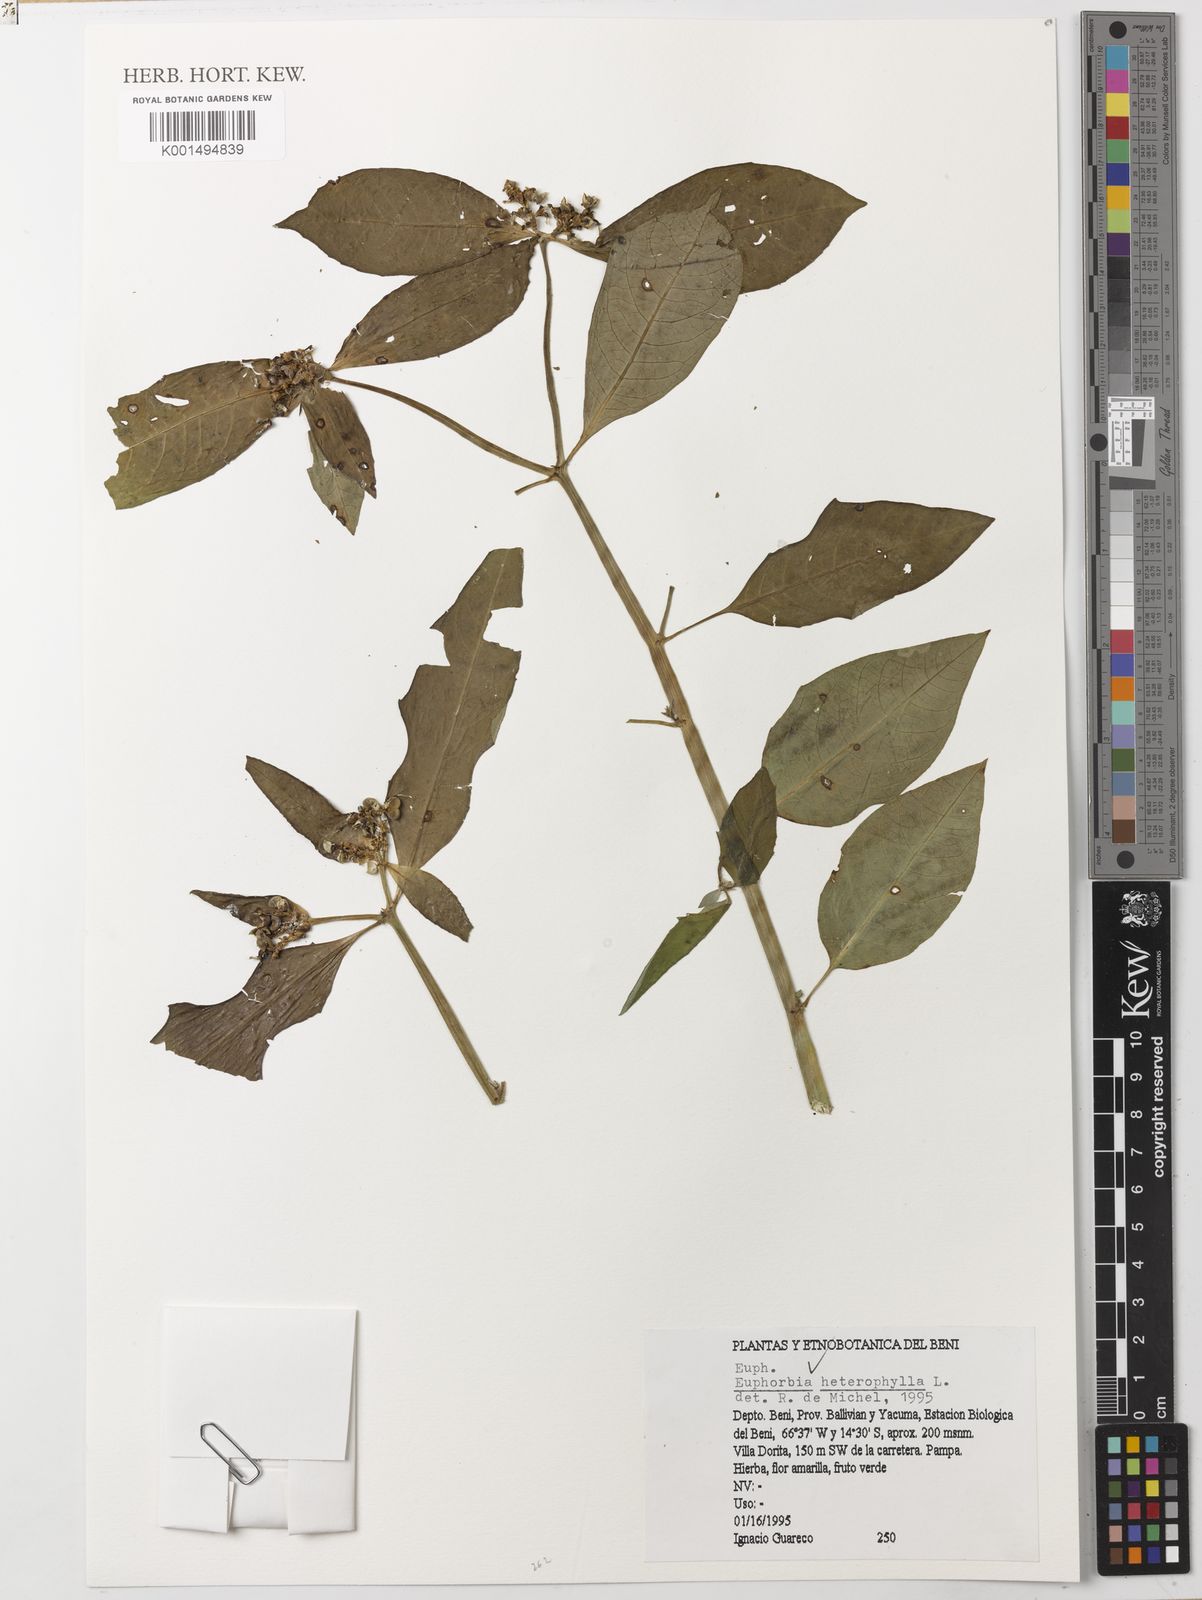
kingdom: Plantae
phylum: Tracheophyta
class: Magnoliopsida
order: Malpighiales
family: Euphorbiaceae
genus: Euphorbia
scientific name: Euphorbia heterophylla
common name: Mexican fireplant
